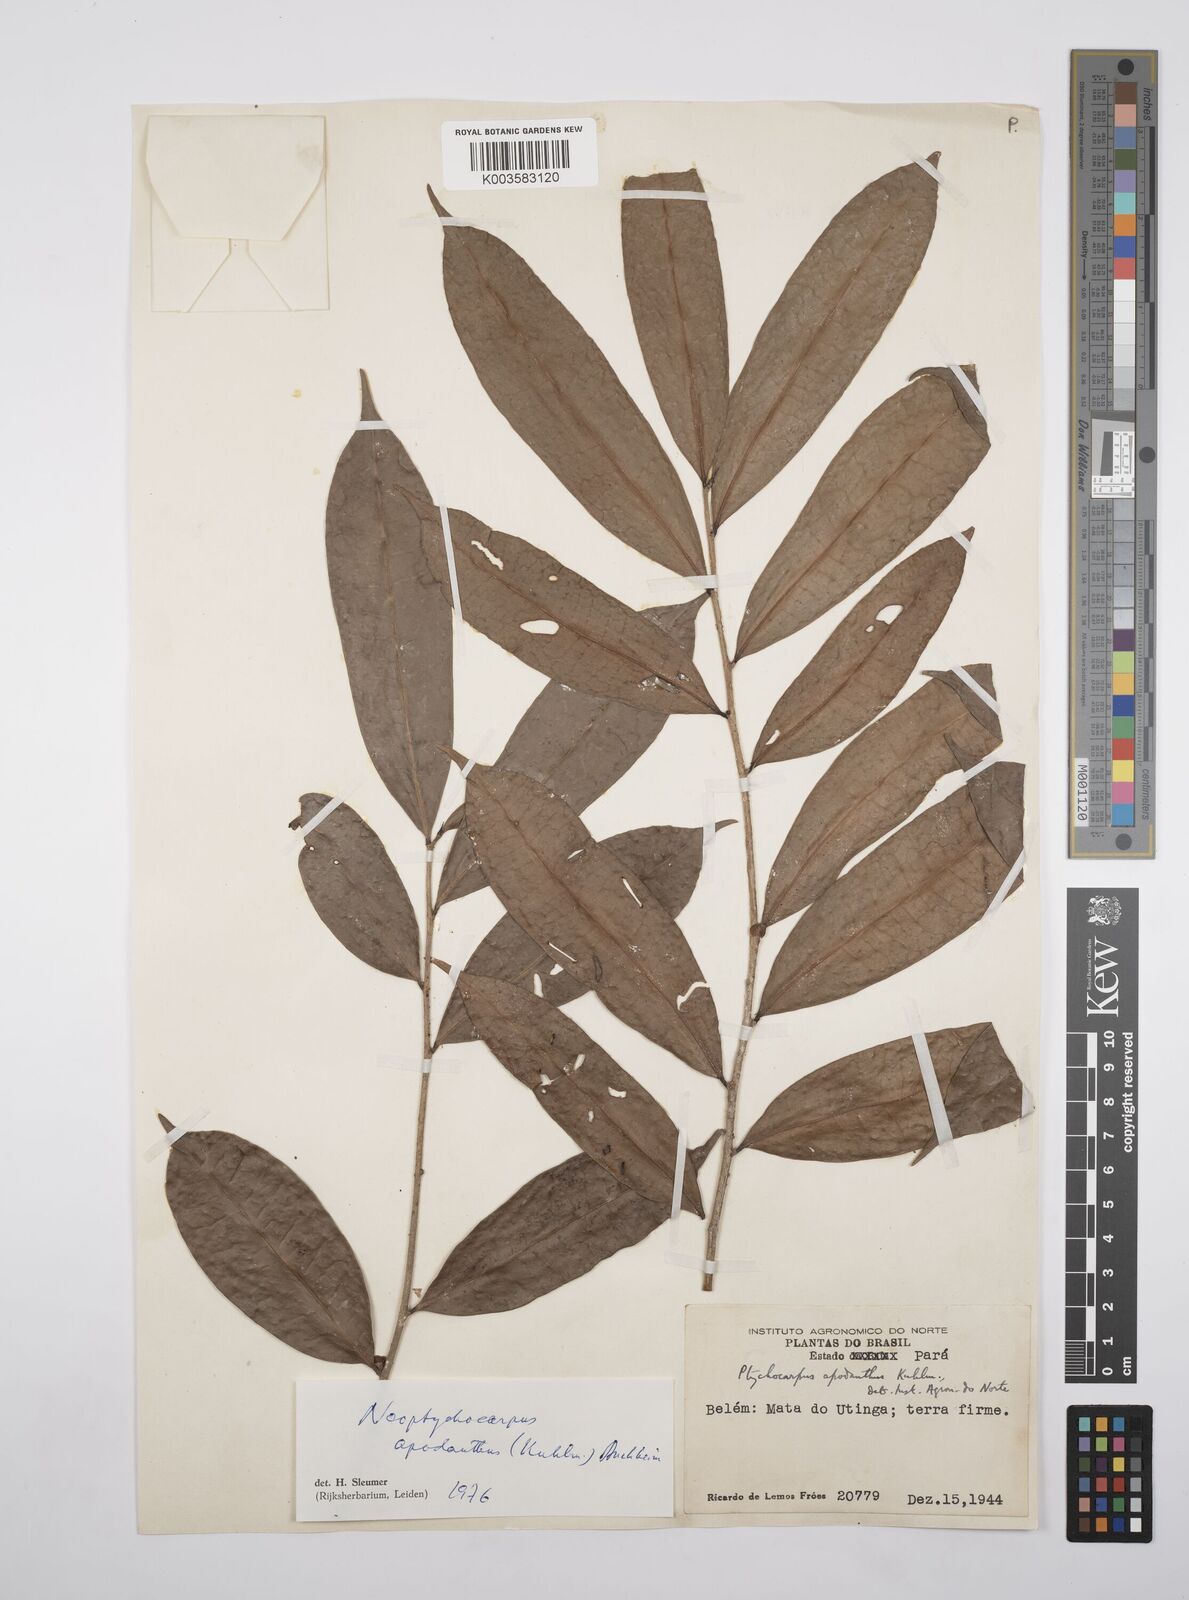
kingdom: Plantae
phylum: Tracheophyta
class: Magnoliopsida
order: Malpighiales
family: Salicaceae
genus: Casearia
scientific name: Casearia apodantha
